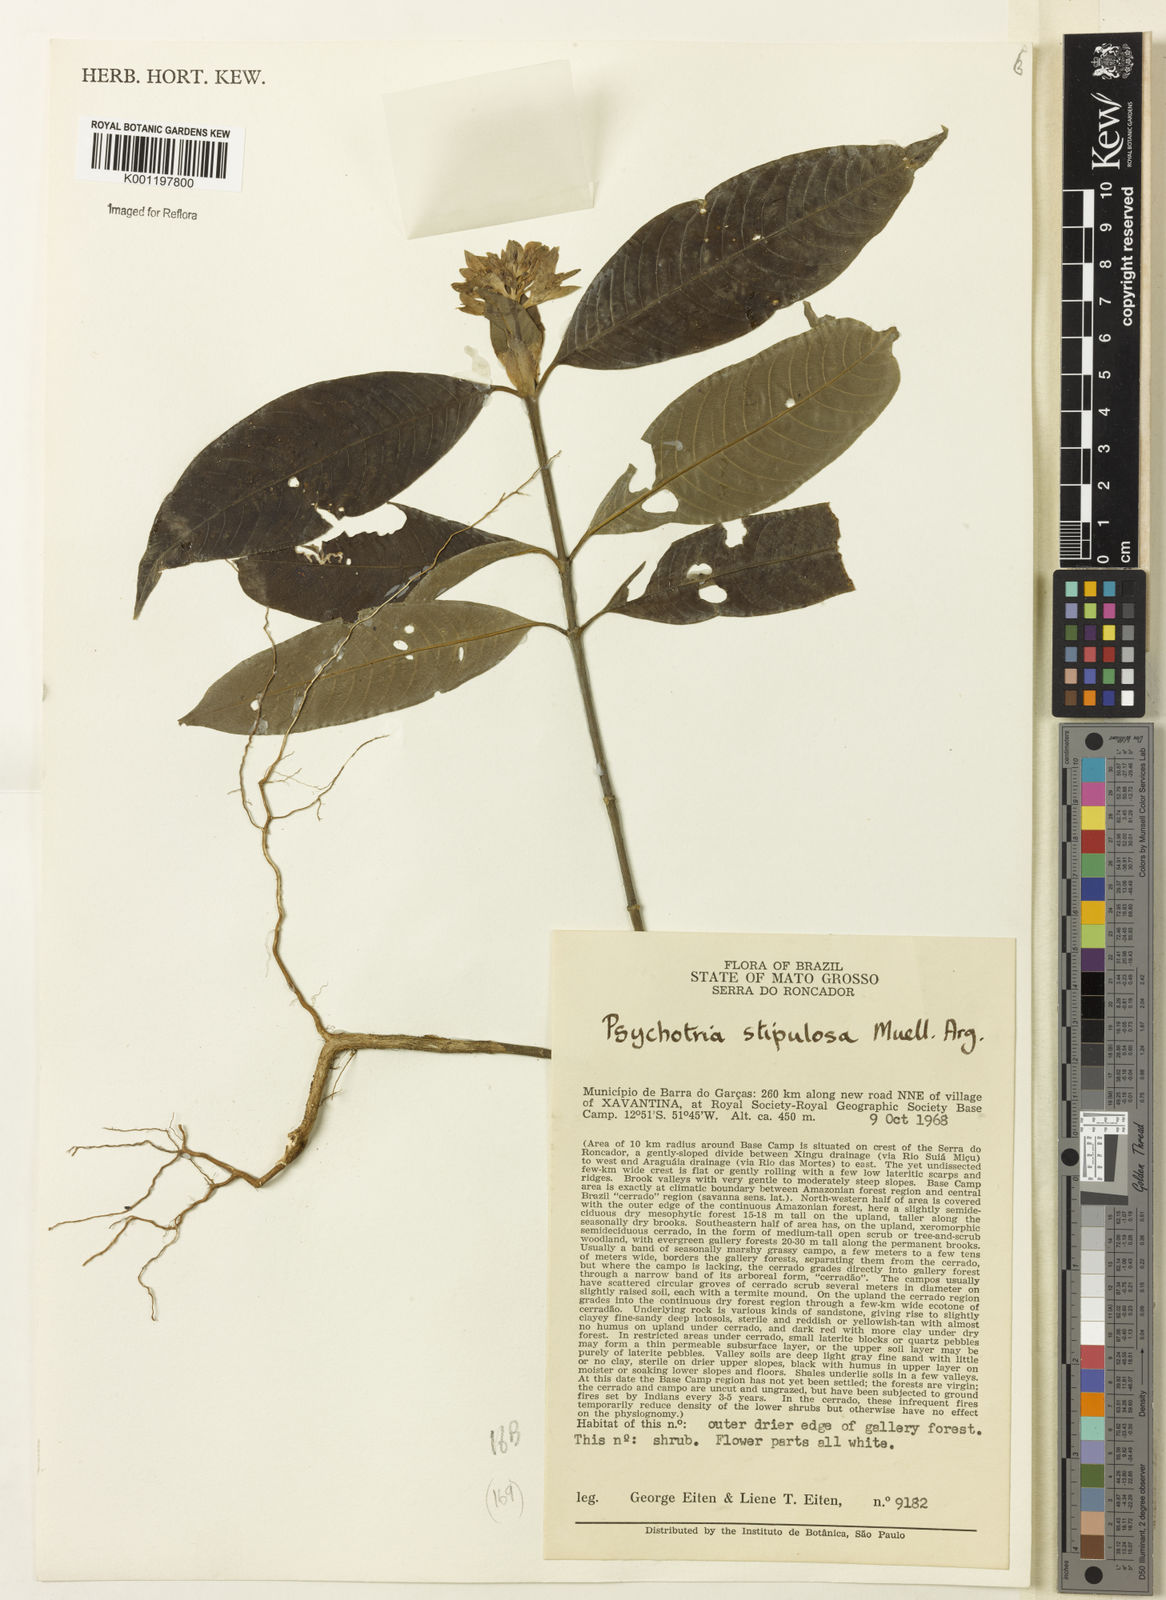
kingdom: Plantae
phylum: Tracheophyta
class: Magnoliopsida
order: Gentianales
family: Rubiaceae
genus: Psychotria
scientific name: Psychotria
